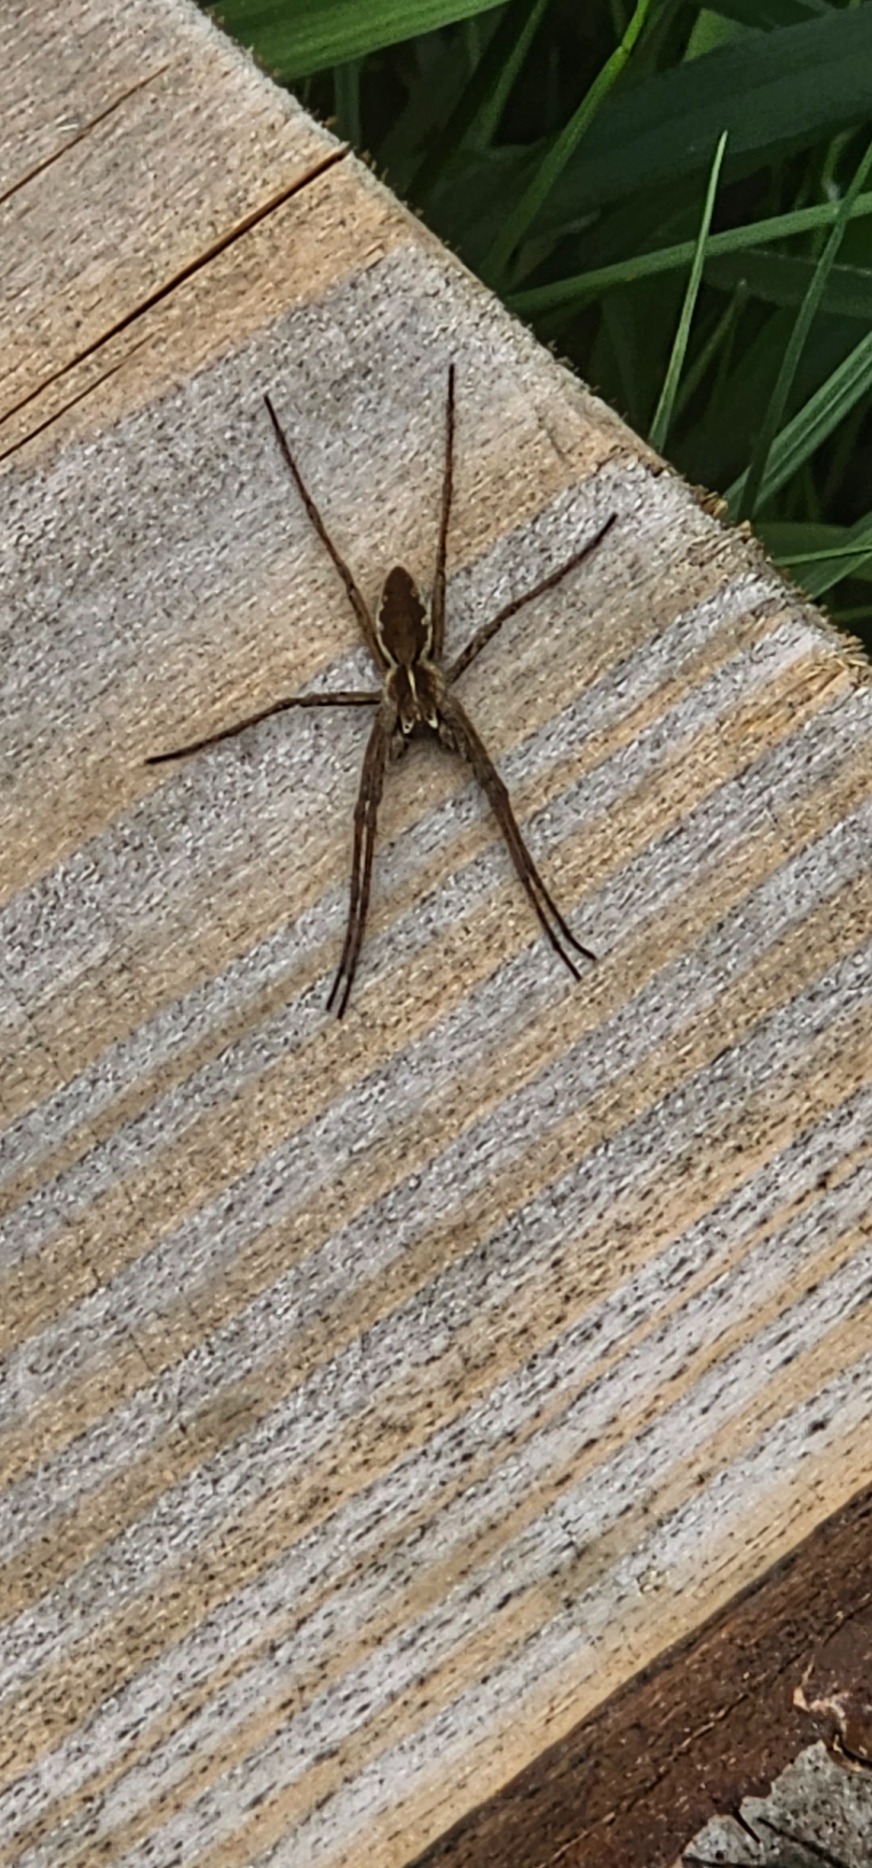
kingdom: Animalia
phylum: Arthropoda
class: Arachnida
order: Araneae
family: Pisauridae
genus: Pisaura
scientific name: Pisaura mirabilis
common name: Almindelig rovedderkop
